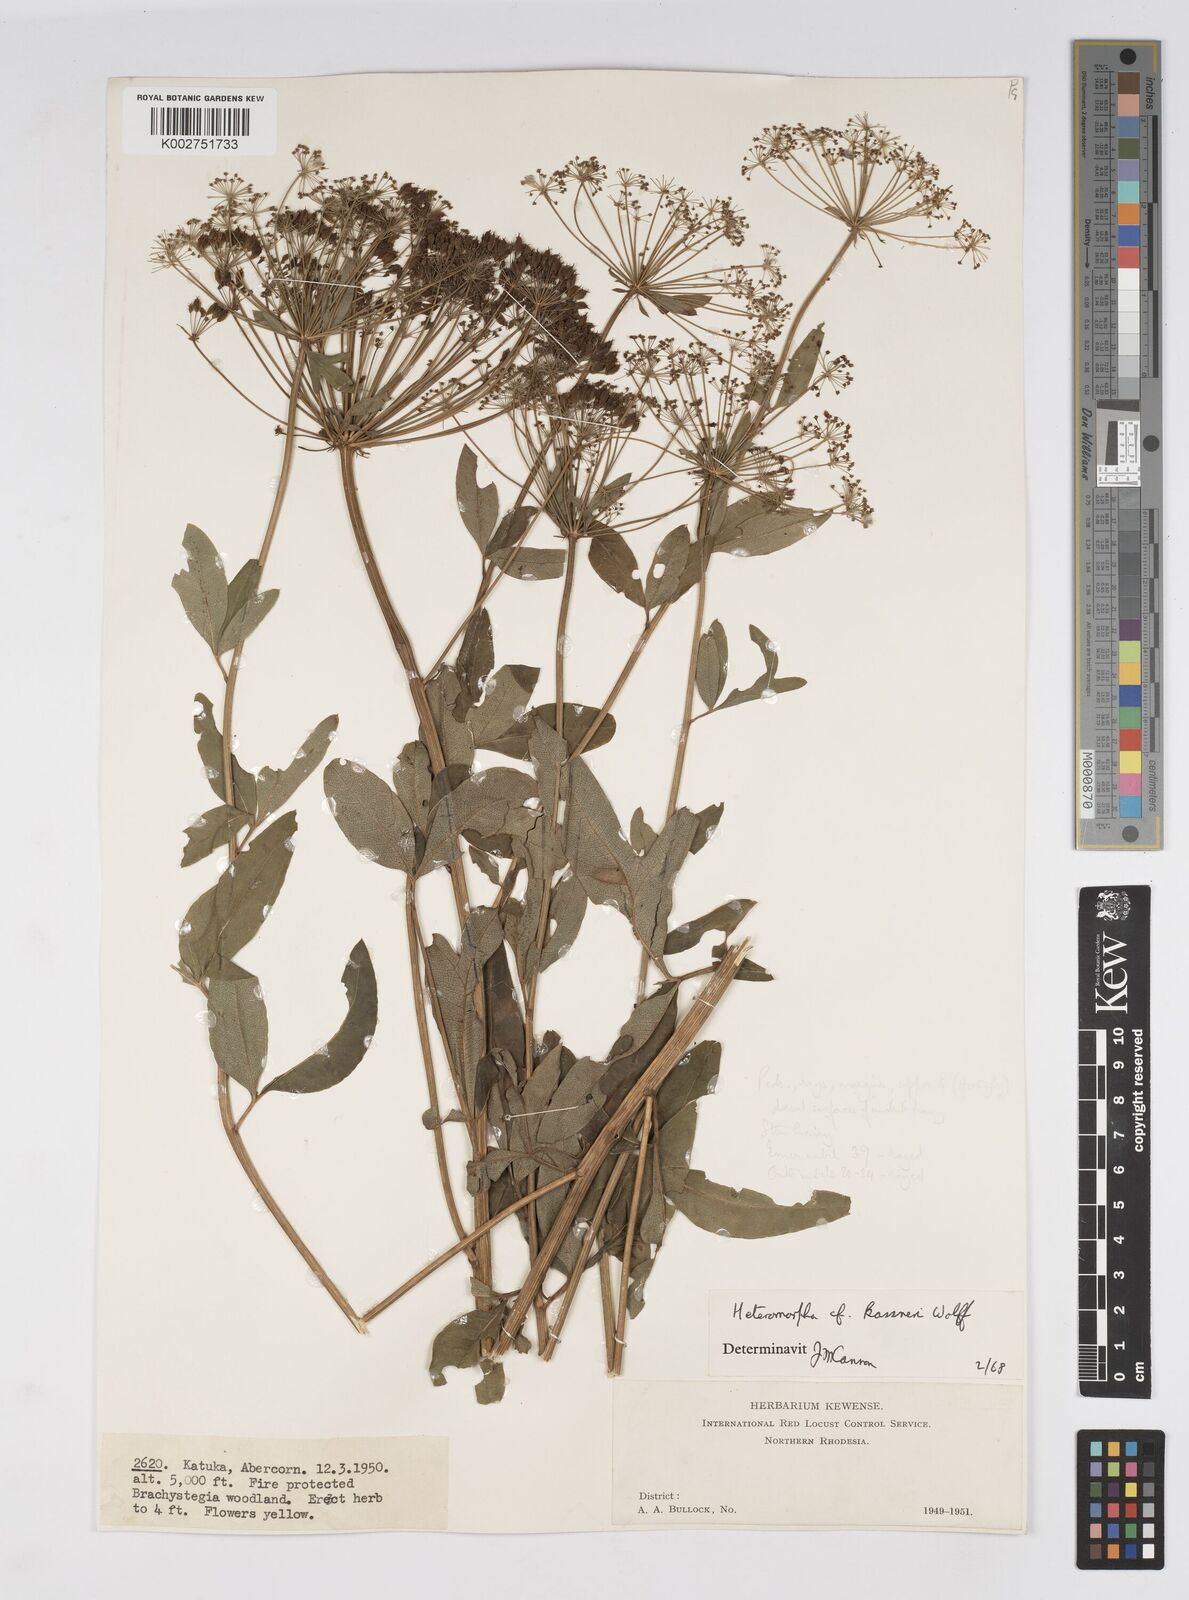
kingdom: Plantae
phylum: Tracheophyta
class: Magnoliopsida
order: Apiales
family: Apiaceae
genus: Heteromorpha
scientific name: Heteromorpha involucrata
